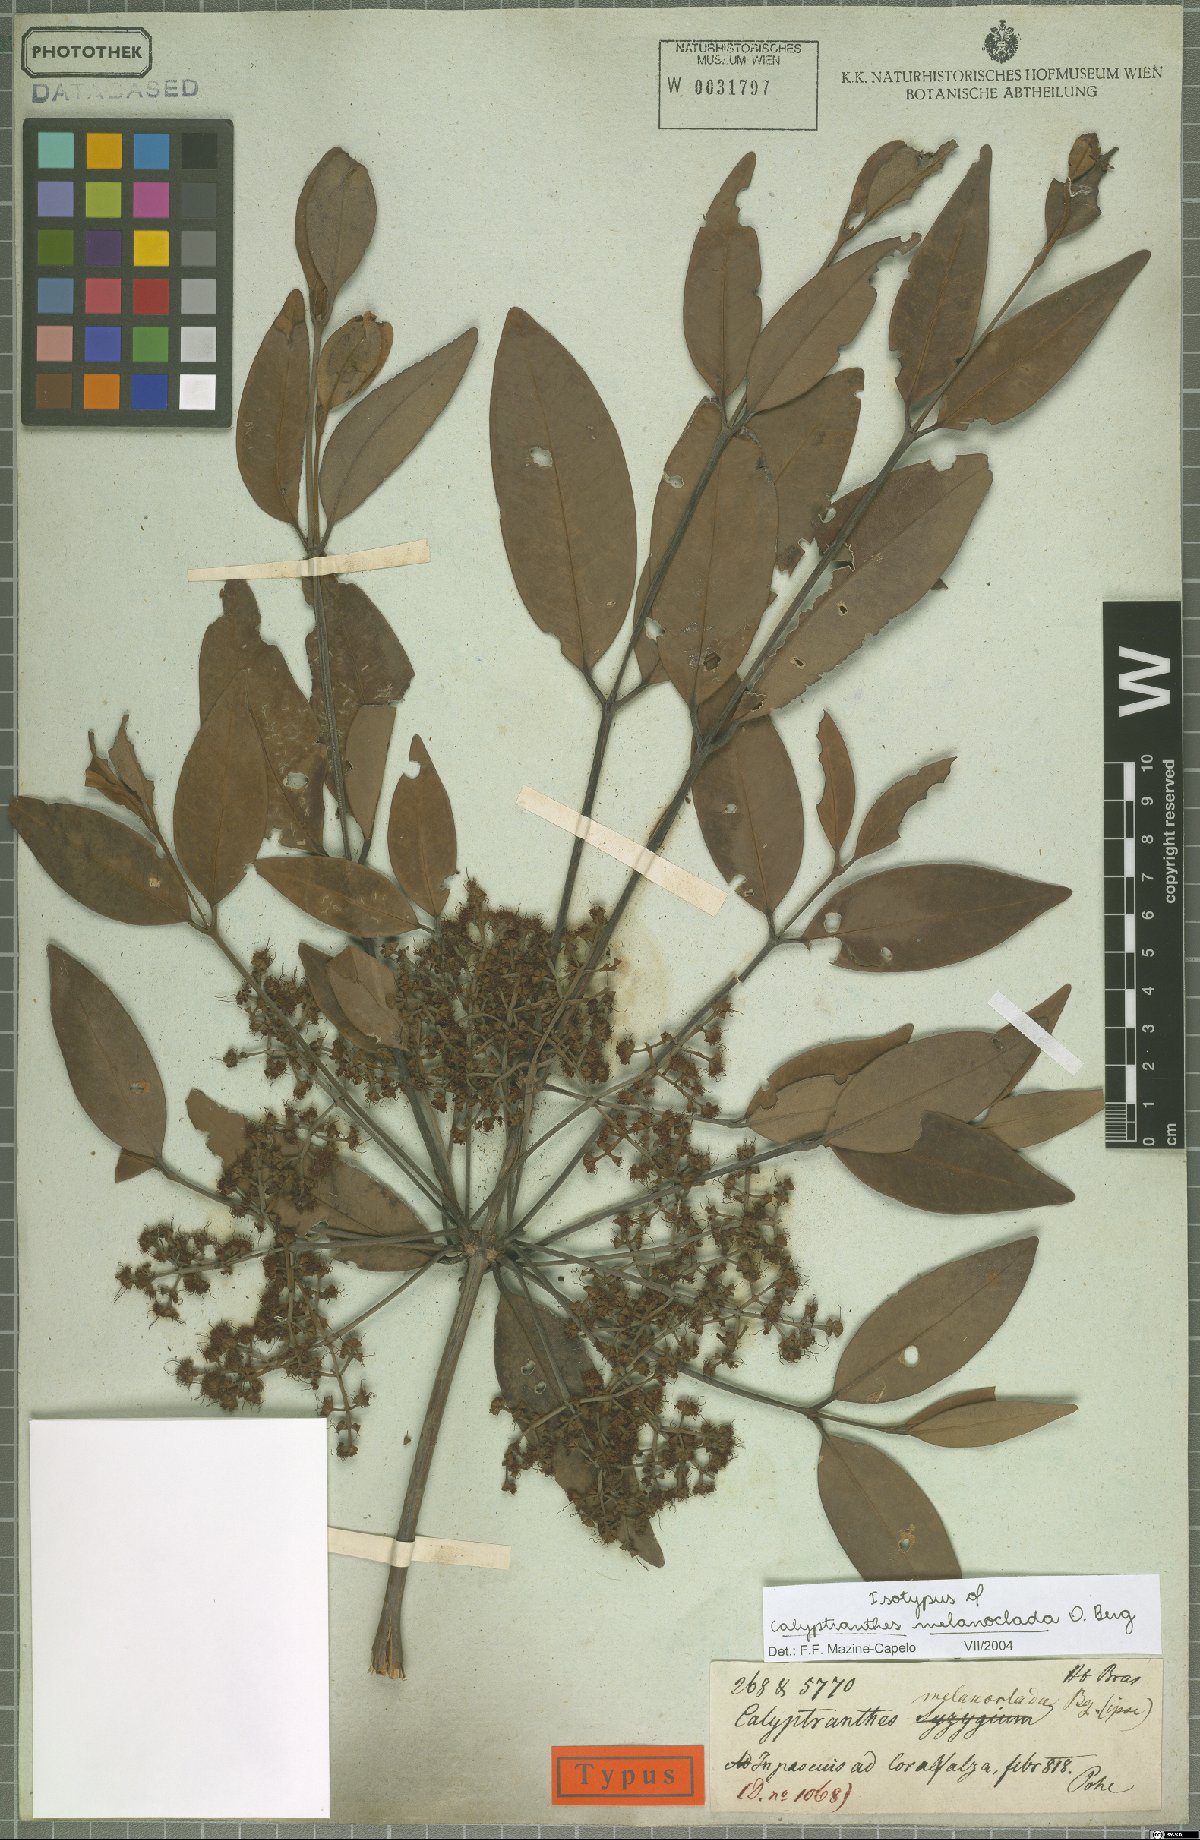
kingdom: Plantae
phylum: Tracheophyta
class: Magnoliopsida
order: Myrtales
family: Myrtaceae
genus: Calyptranthes
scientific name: Calyptranthes melanoclada
